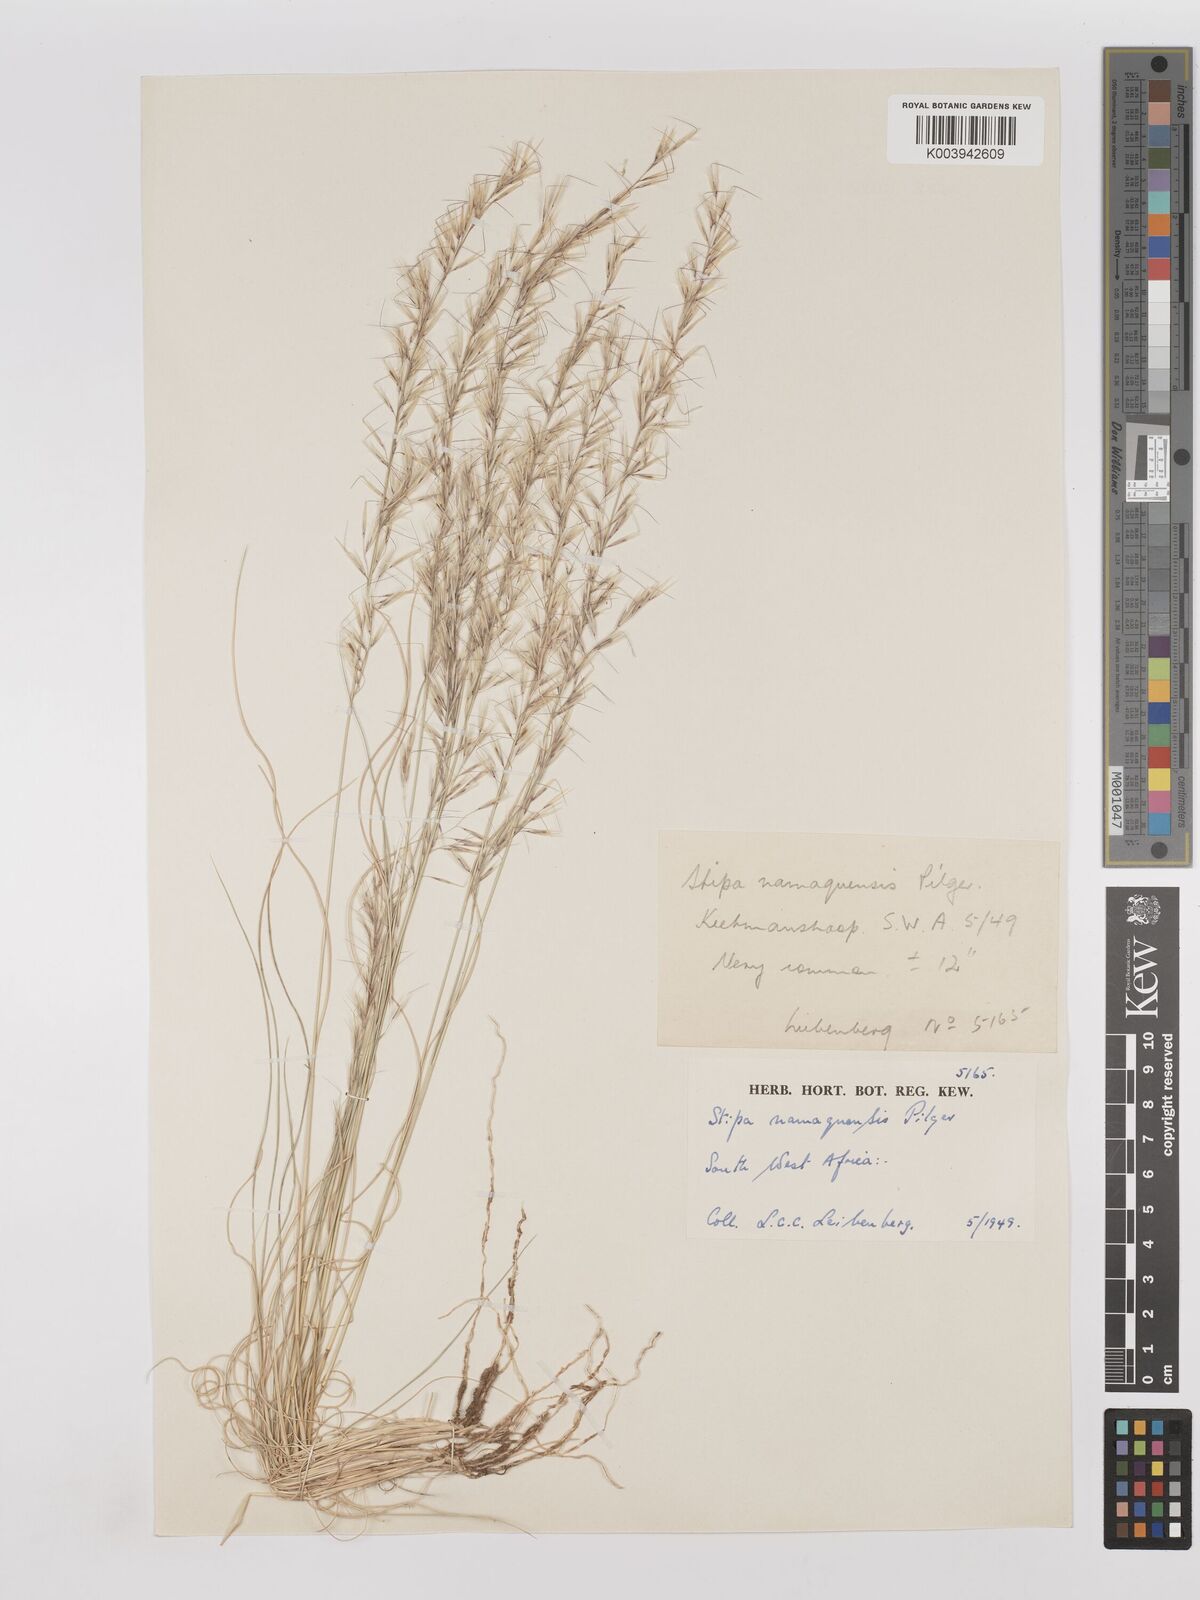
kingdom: Plantae
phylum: Tracheophyta
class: Liliopsida
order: Poales
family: Poaceae
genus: Stipagrostis
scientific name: Stipagrostis anomala
